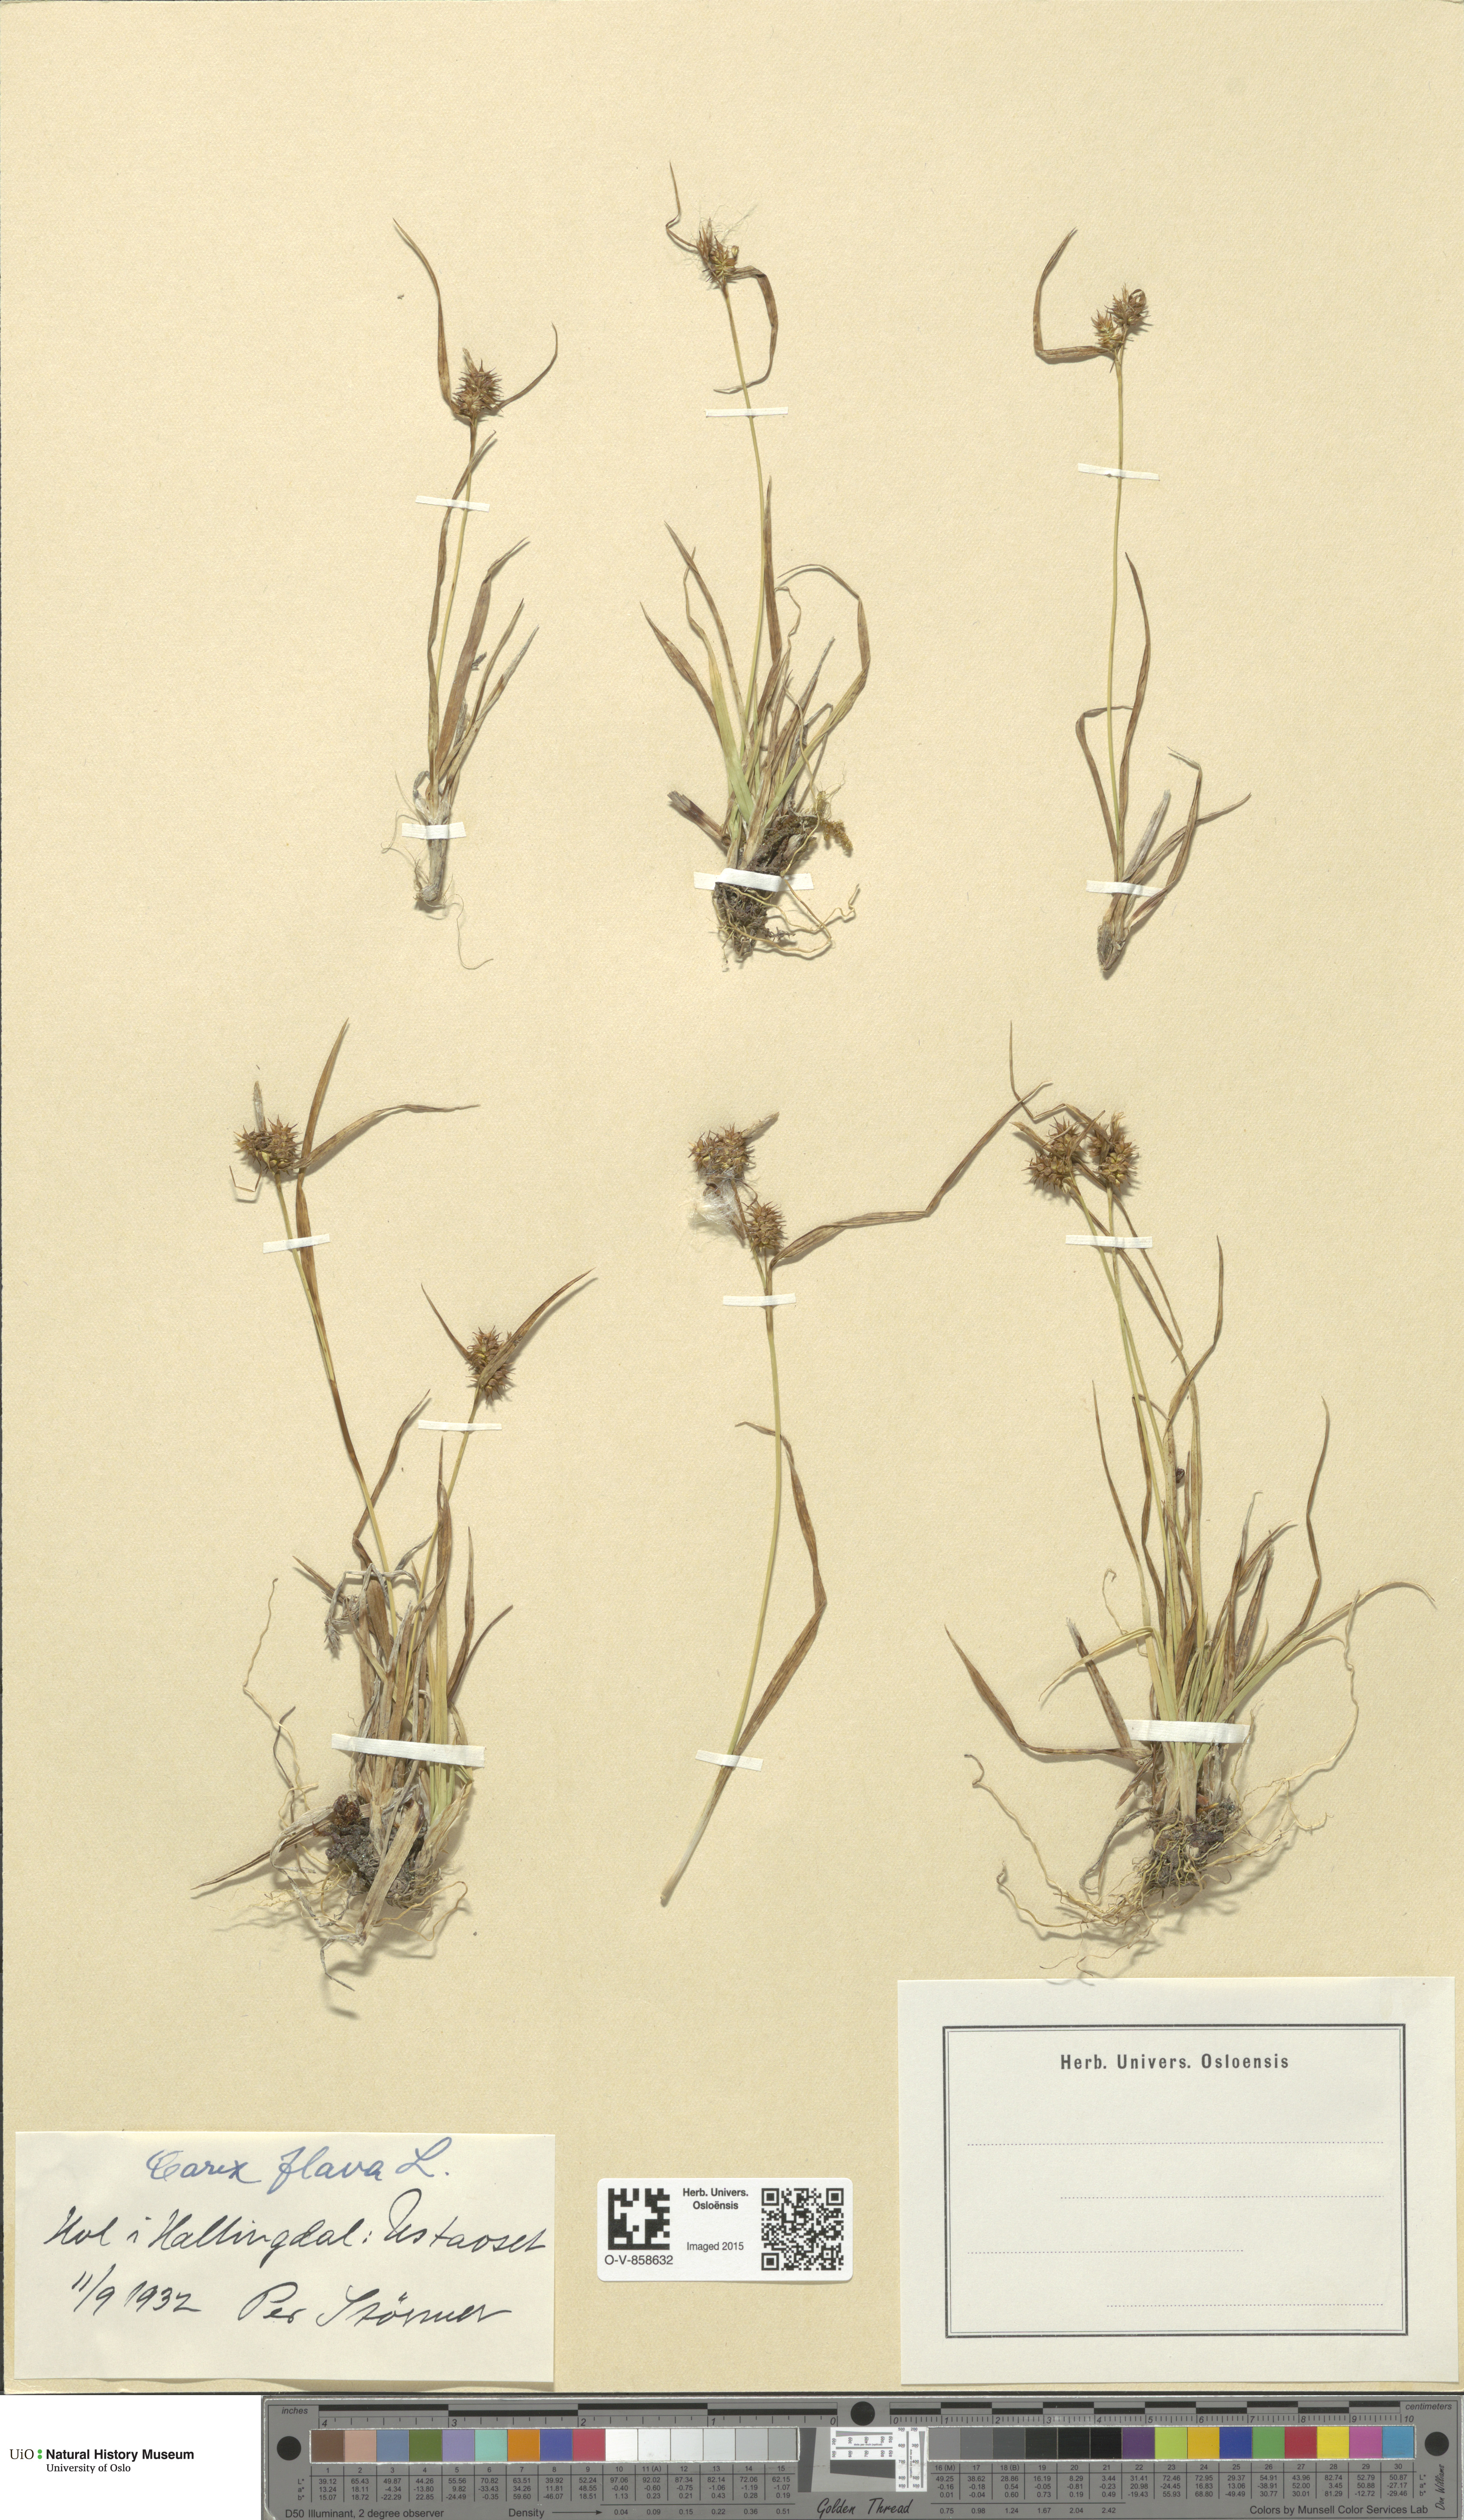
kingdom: Plantae
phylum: Tracheophyta
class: Liliopsida
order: Poales
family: Cyperaceae
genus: Carex
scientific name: Carex flava
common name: Large yellow-sedge
